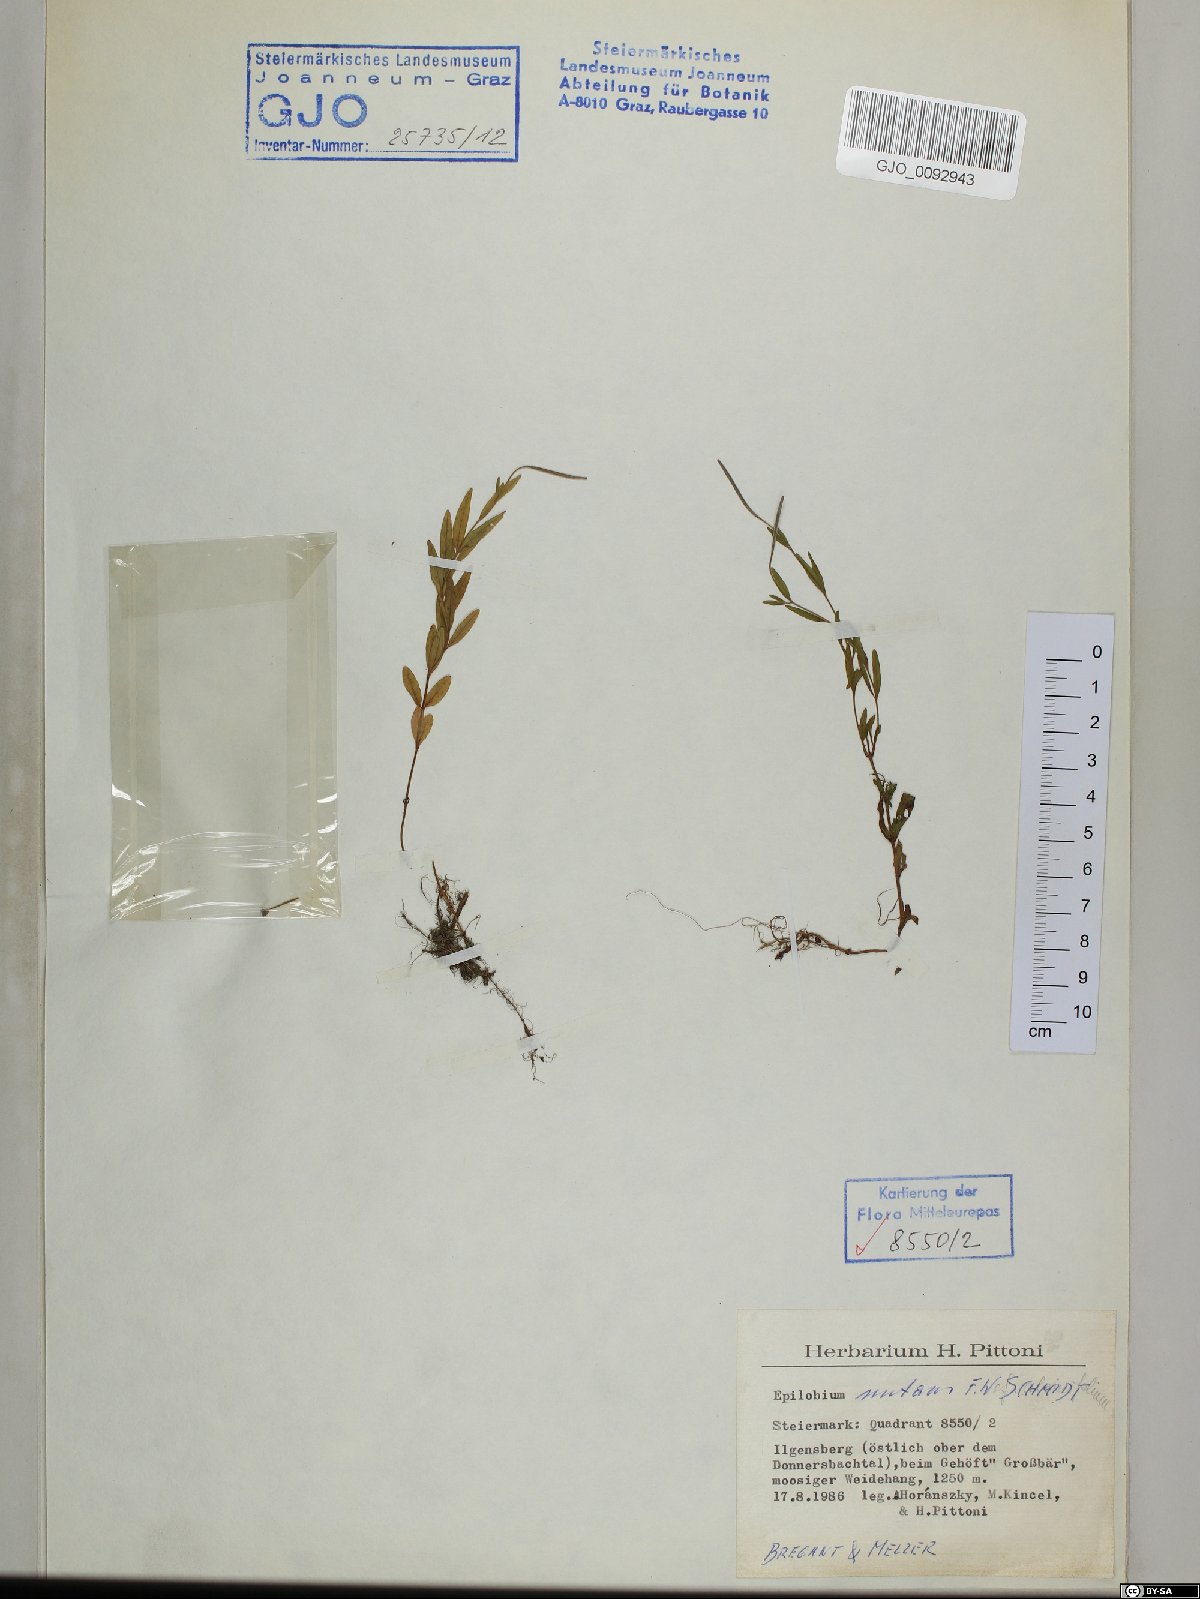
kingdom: Plantae
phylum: Tracheophyta
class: Magnoliopsida
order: Myrtales
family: Onagraceae
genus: Epilobium
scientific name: Epilobium nutans
